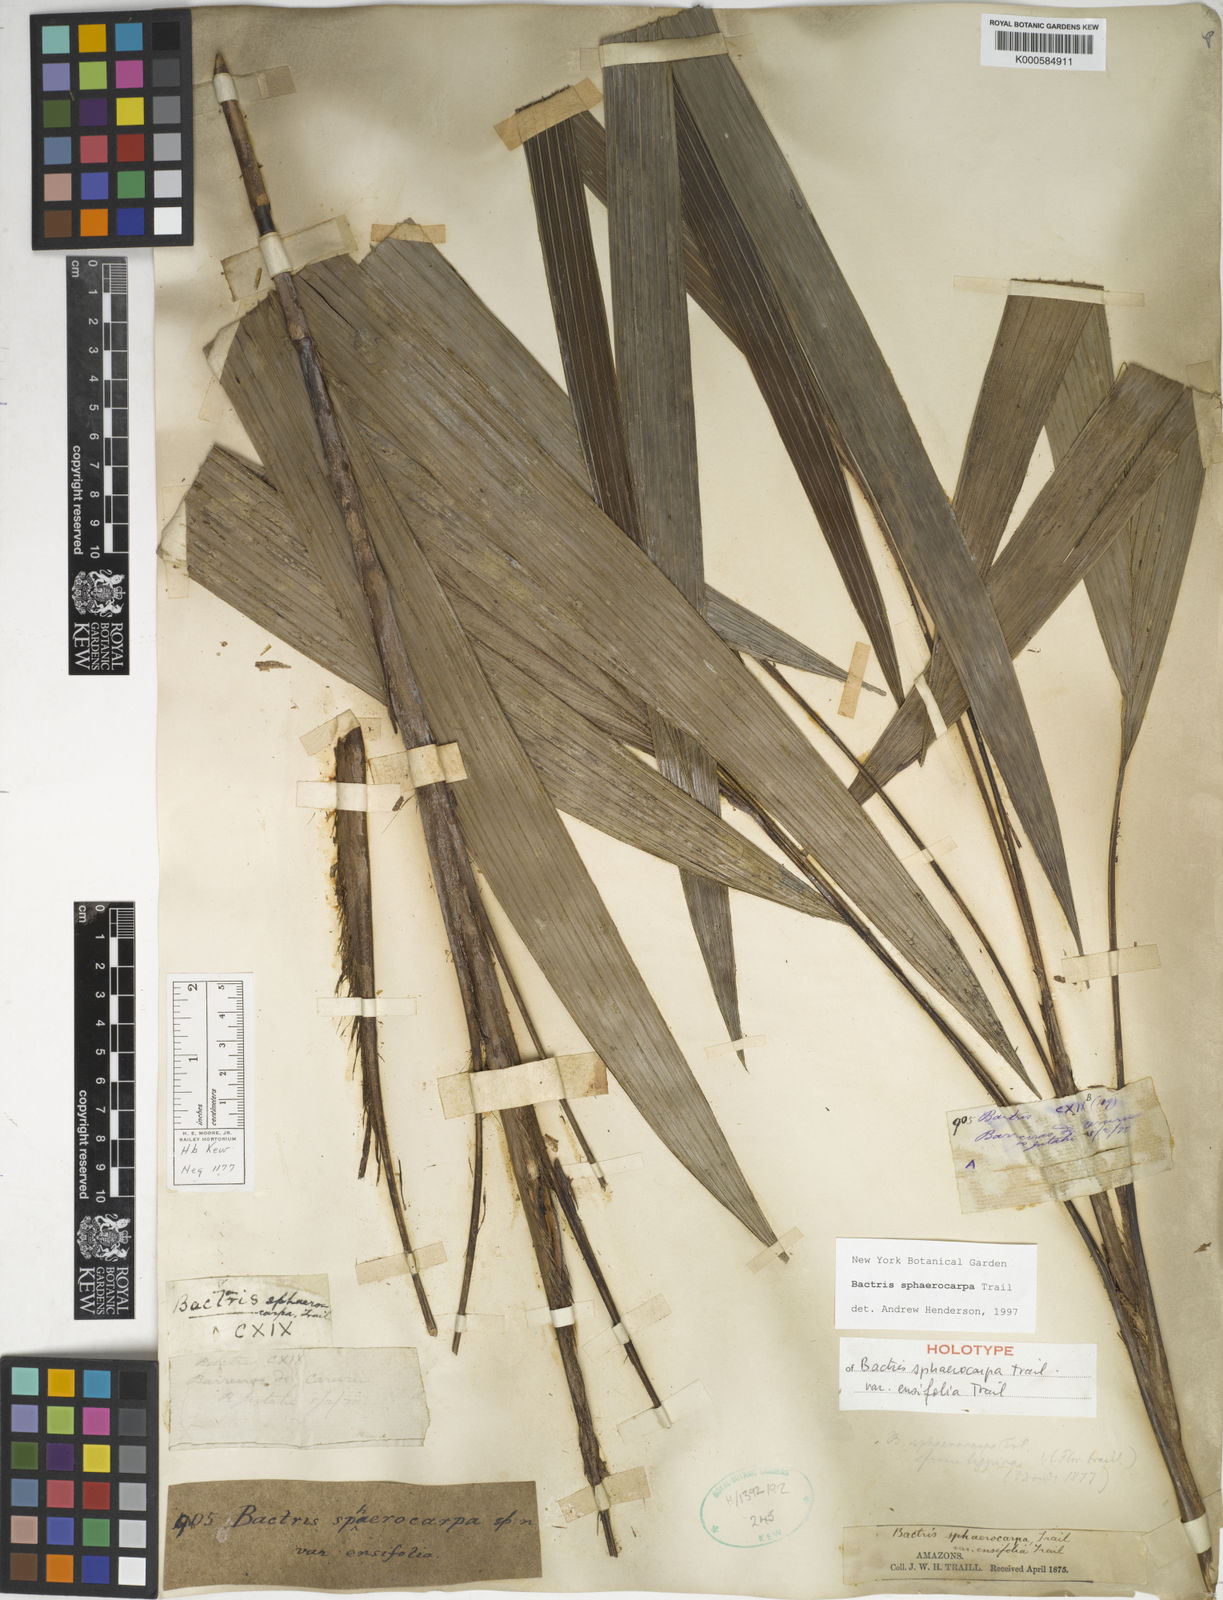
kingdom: Plantae
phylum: Tracheophyta
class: Liliopsida
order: Arecales
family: Arecaceae
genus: Bactris
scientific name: Bactris sphaerocarpa
